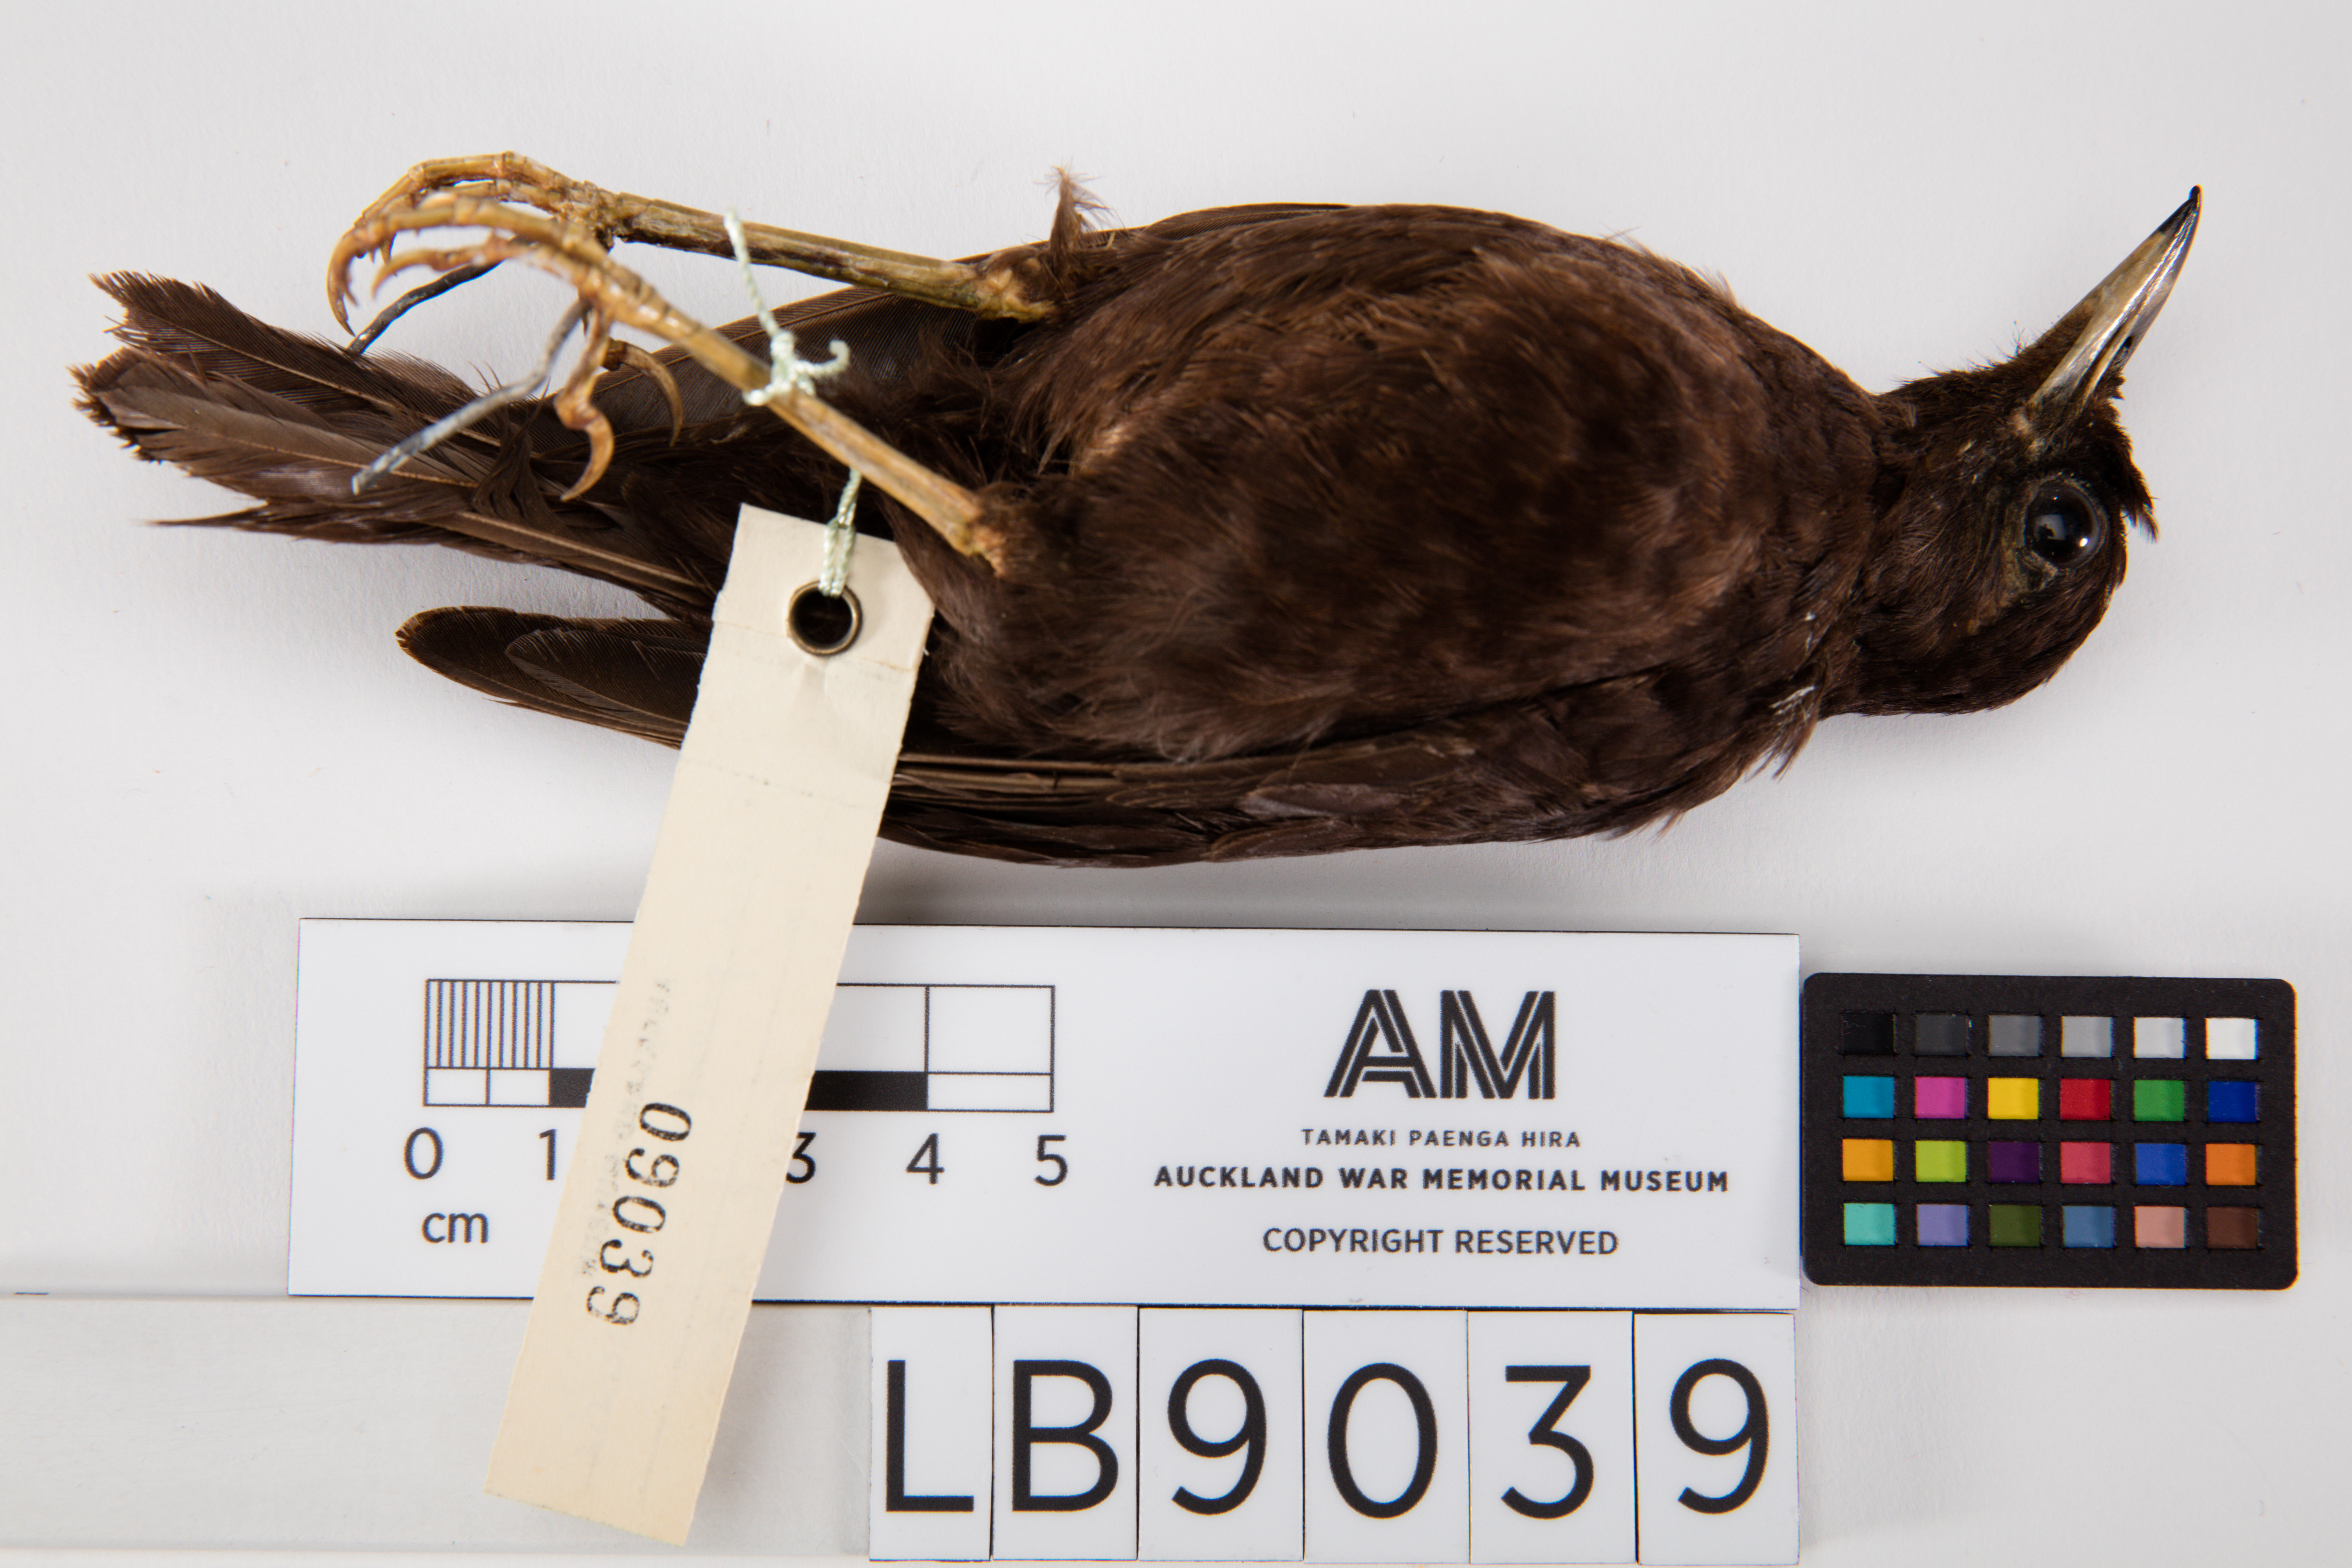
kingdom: Animalia
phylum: Chordata
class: Aves
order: Passeriformes
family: Turdidae
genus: Turdus
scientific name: Turdus poliocephalus
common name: Island thrush
